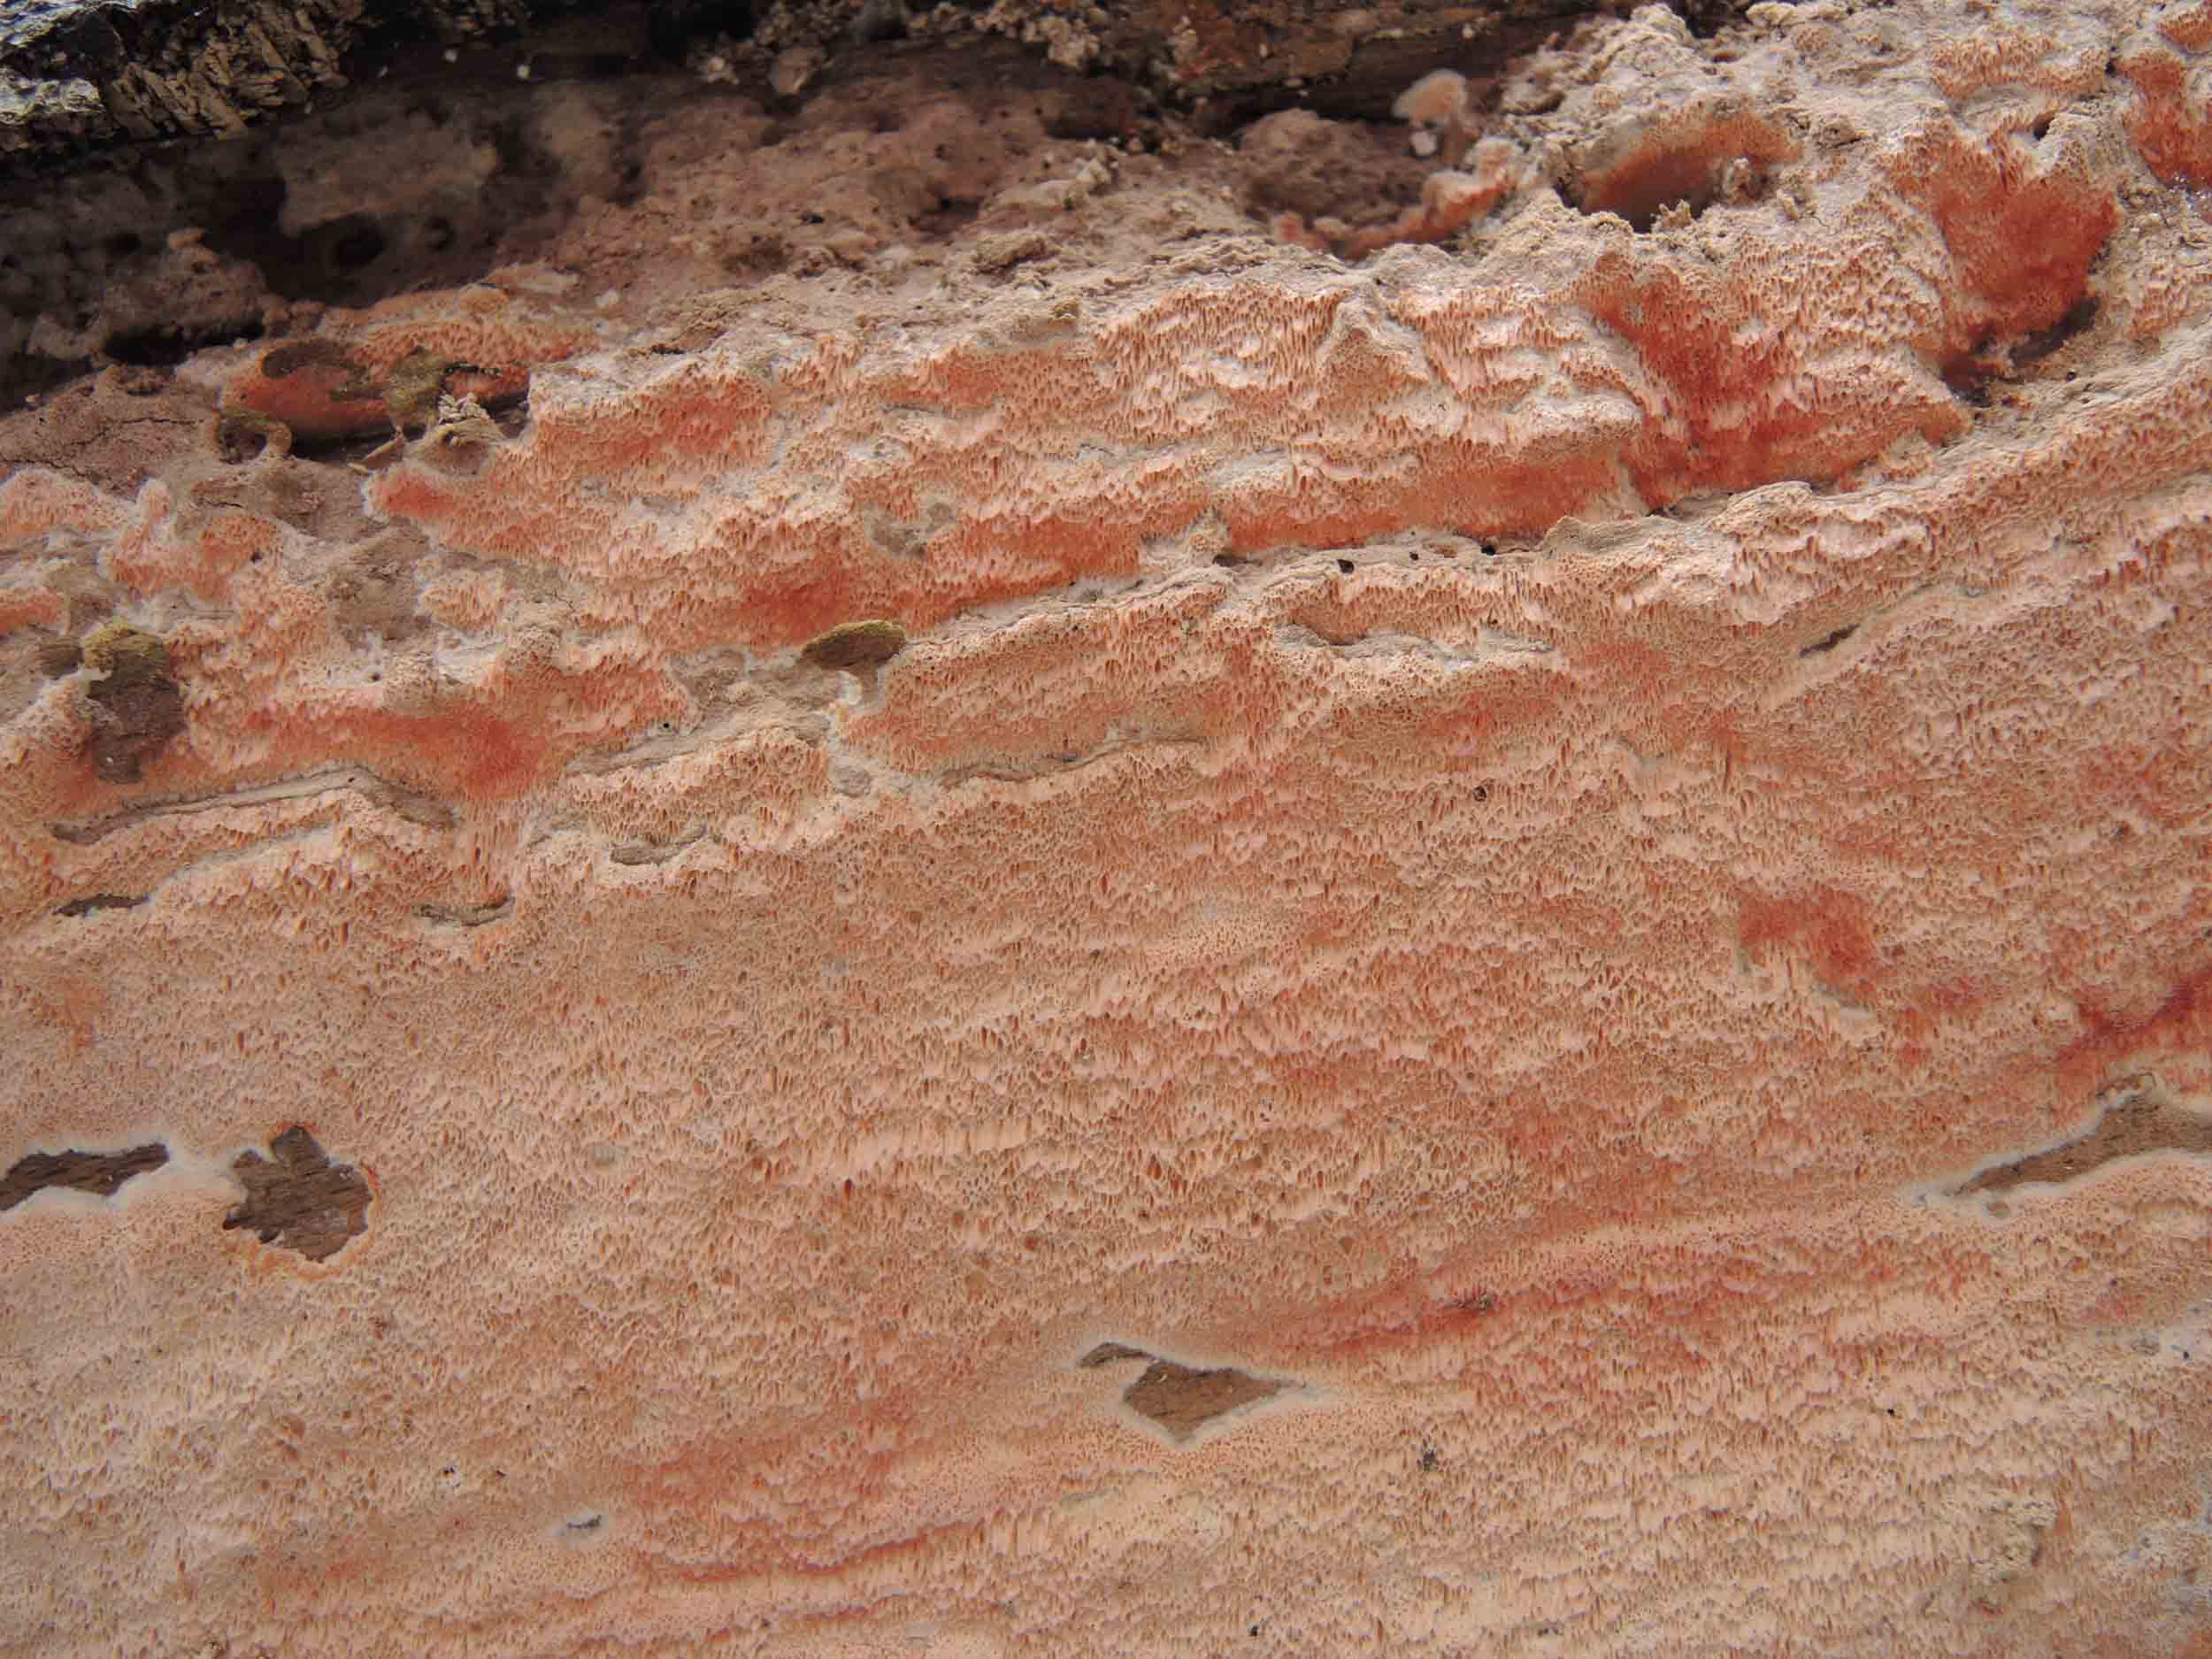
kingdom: Fungi
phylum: Basidiomycota
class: Agaricomycetes
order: Polyporales
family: Meruliaceae
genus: Mycoacia
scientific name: Mycoacia gilvescens
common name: rosa pastelporesvamp
